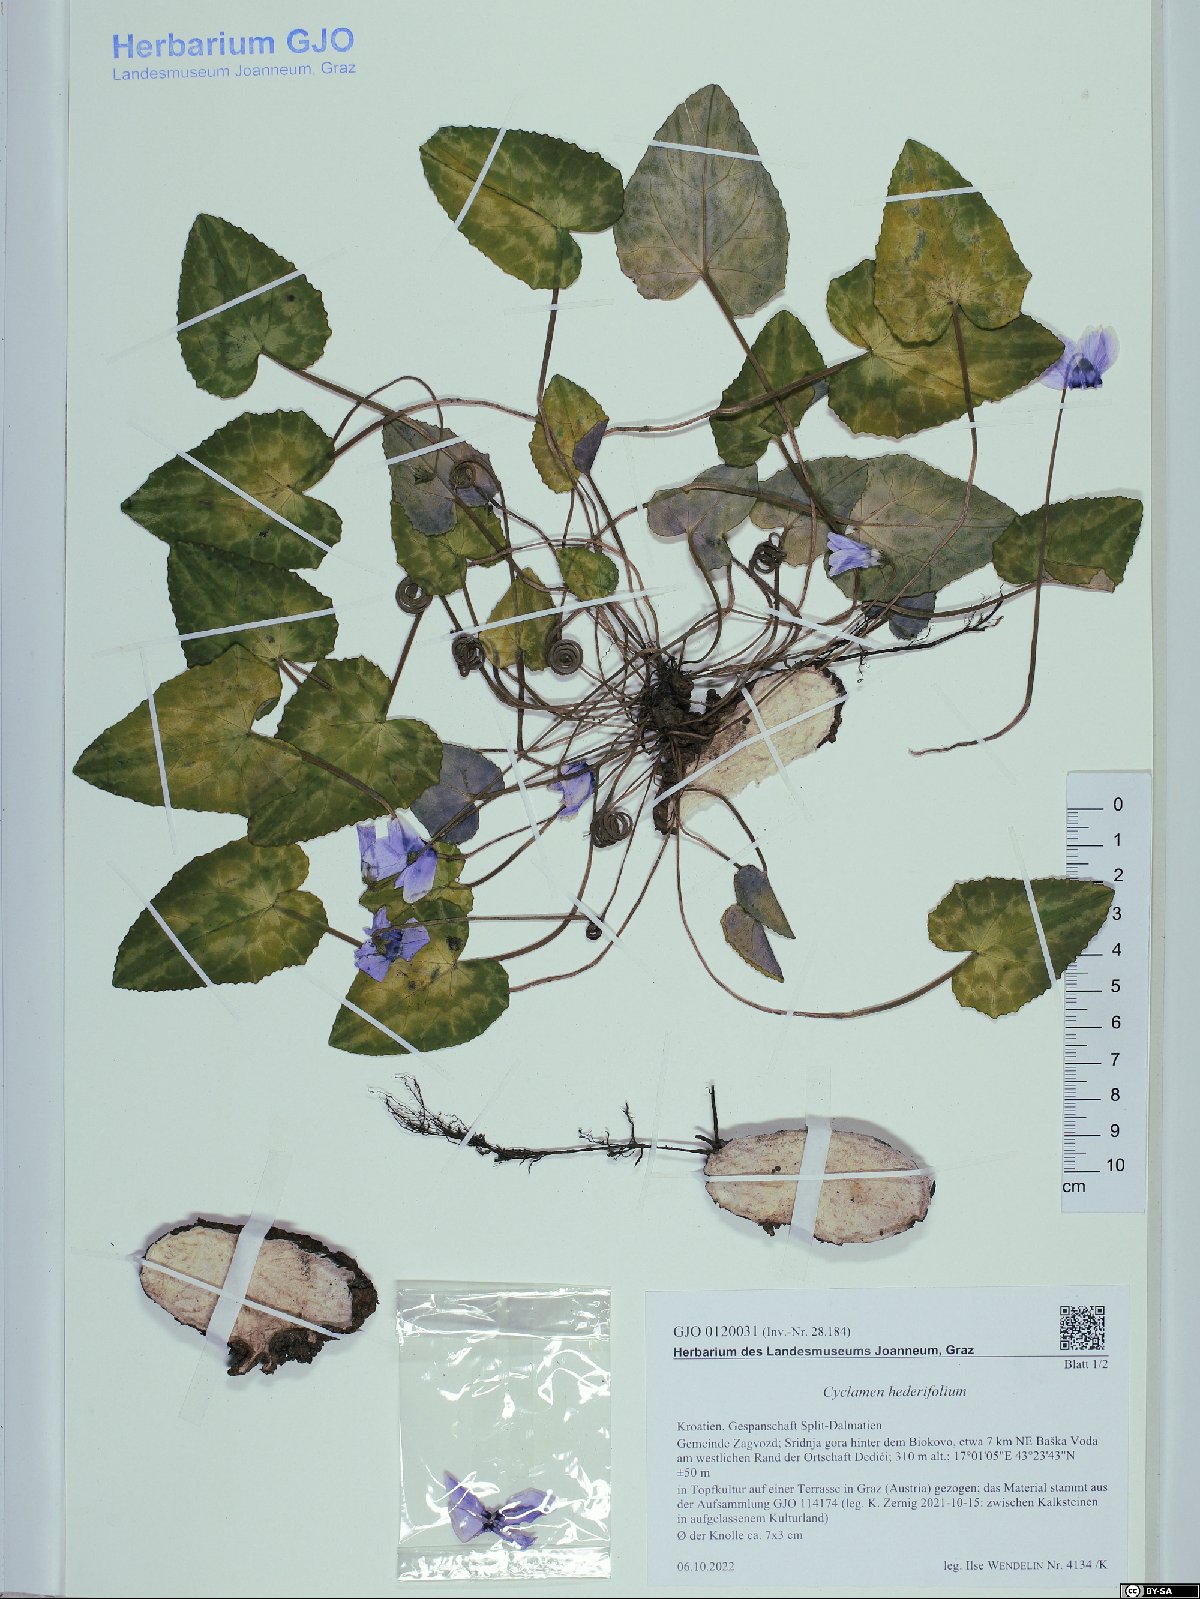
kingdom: Plantae
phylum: Tracheophyta
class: Magnoliopsida
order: Ericales
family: Primulaceae
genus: Cyclamen
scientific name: Cyclamen hederifolium
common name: Sowbread
